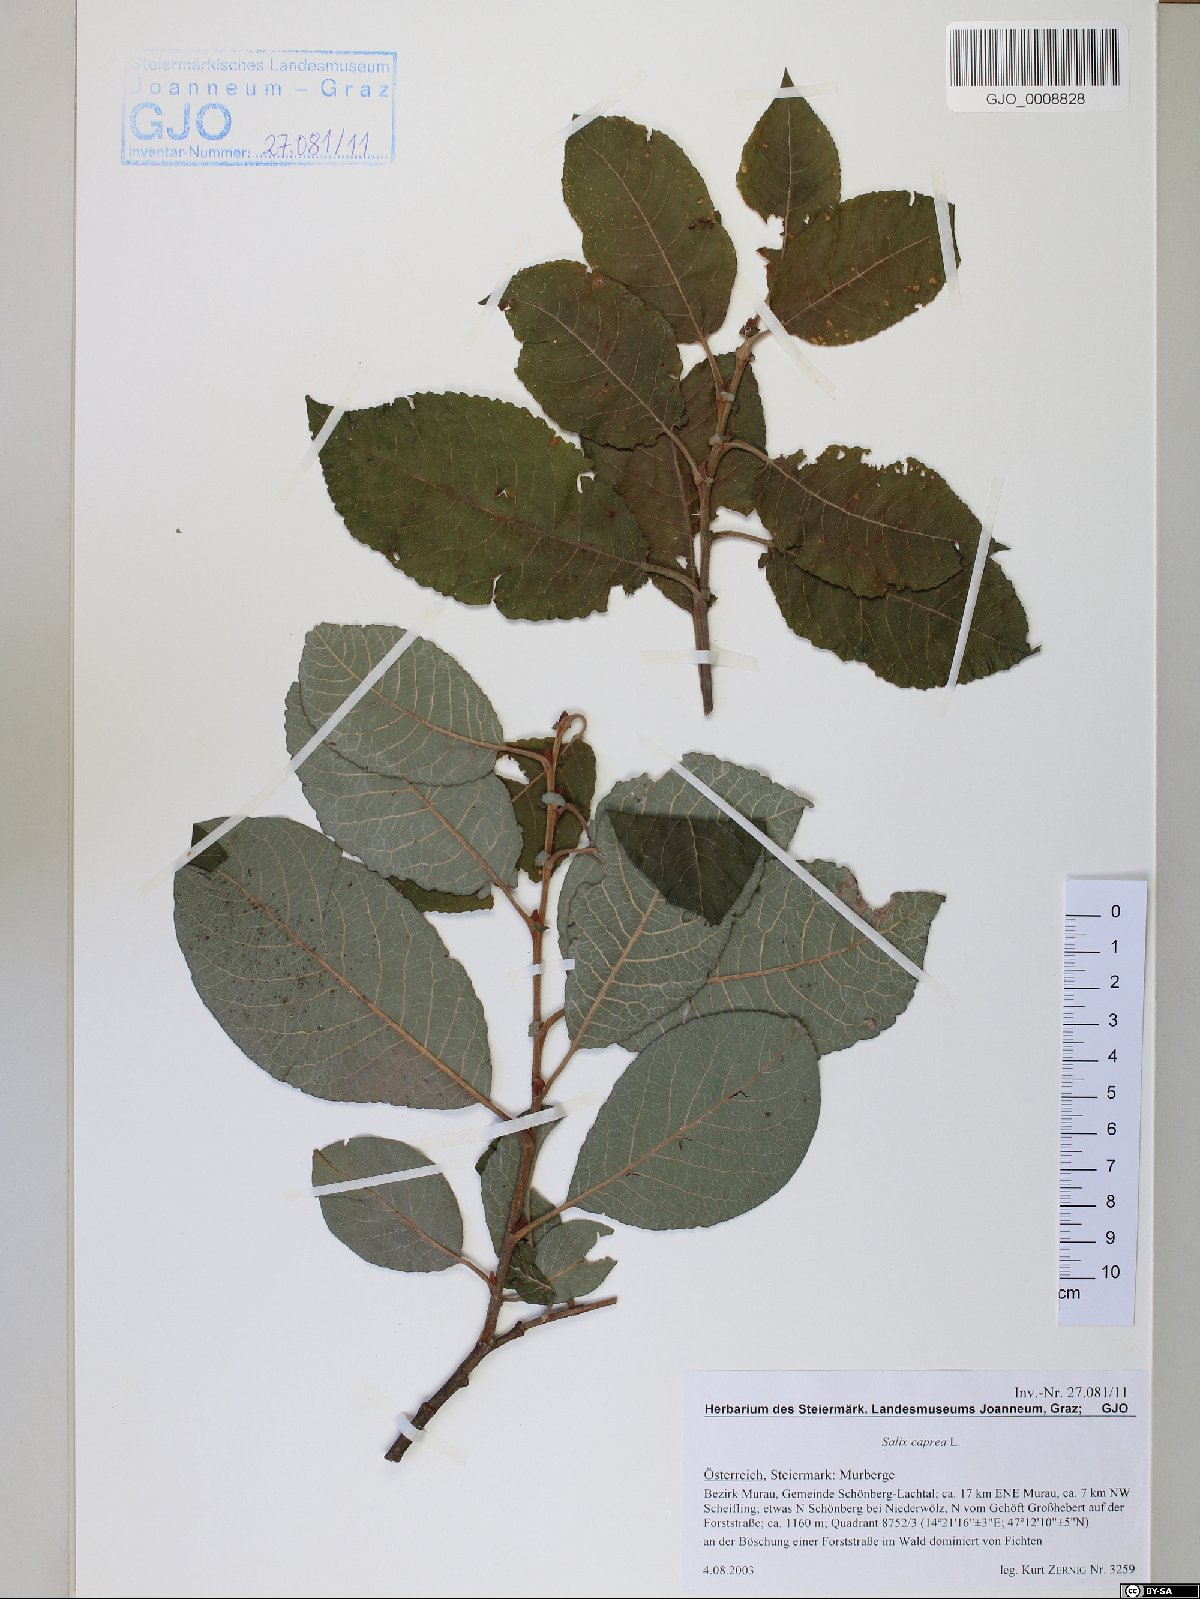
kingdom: Plantae
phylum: Tracheophyta
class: Magnoliopsida
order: Malpighiales
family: Salicaceae
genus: Salix
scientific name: Salix caprea
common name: Goat willow
